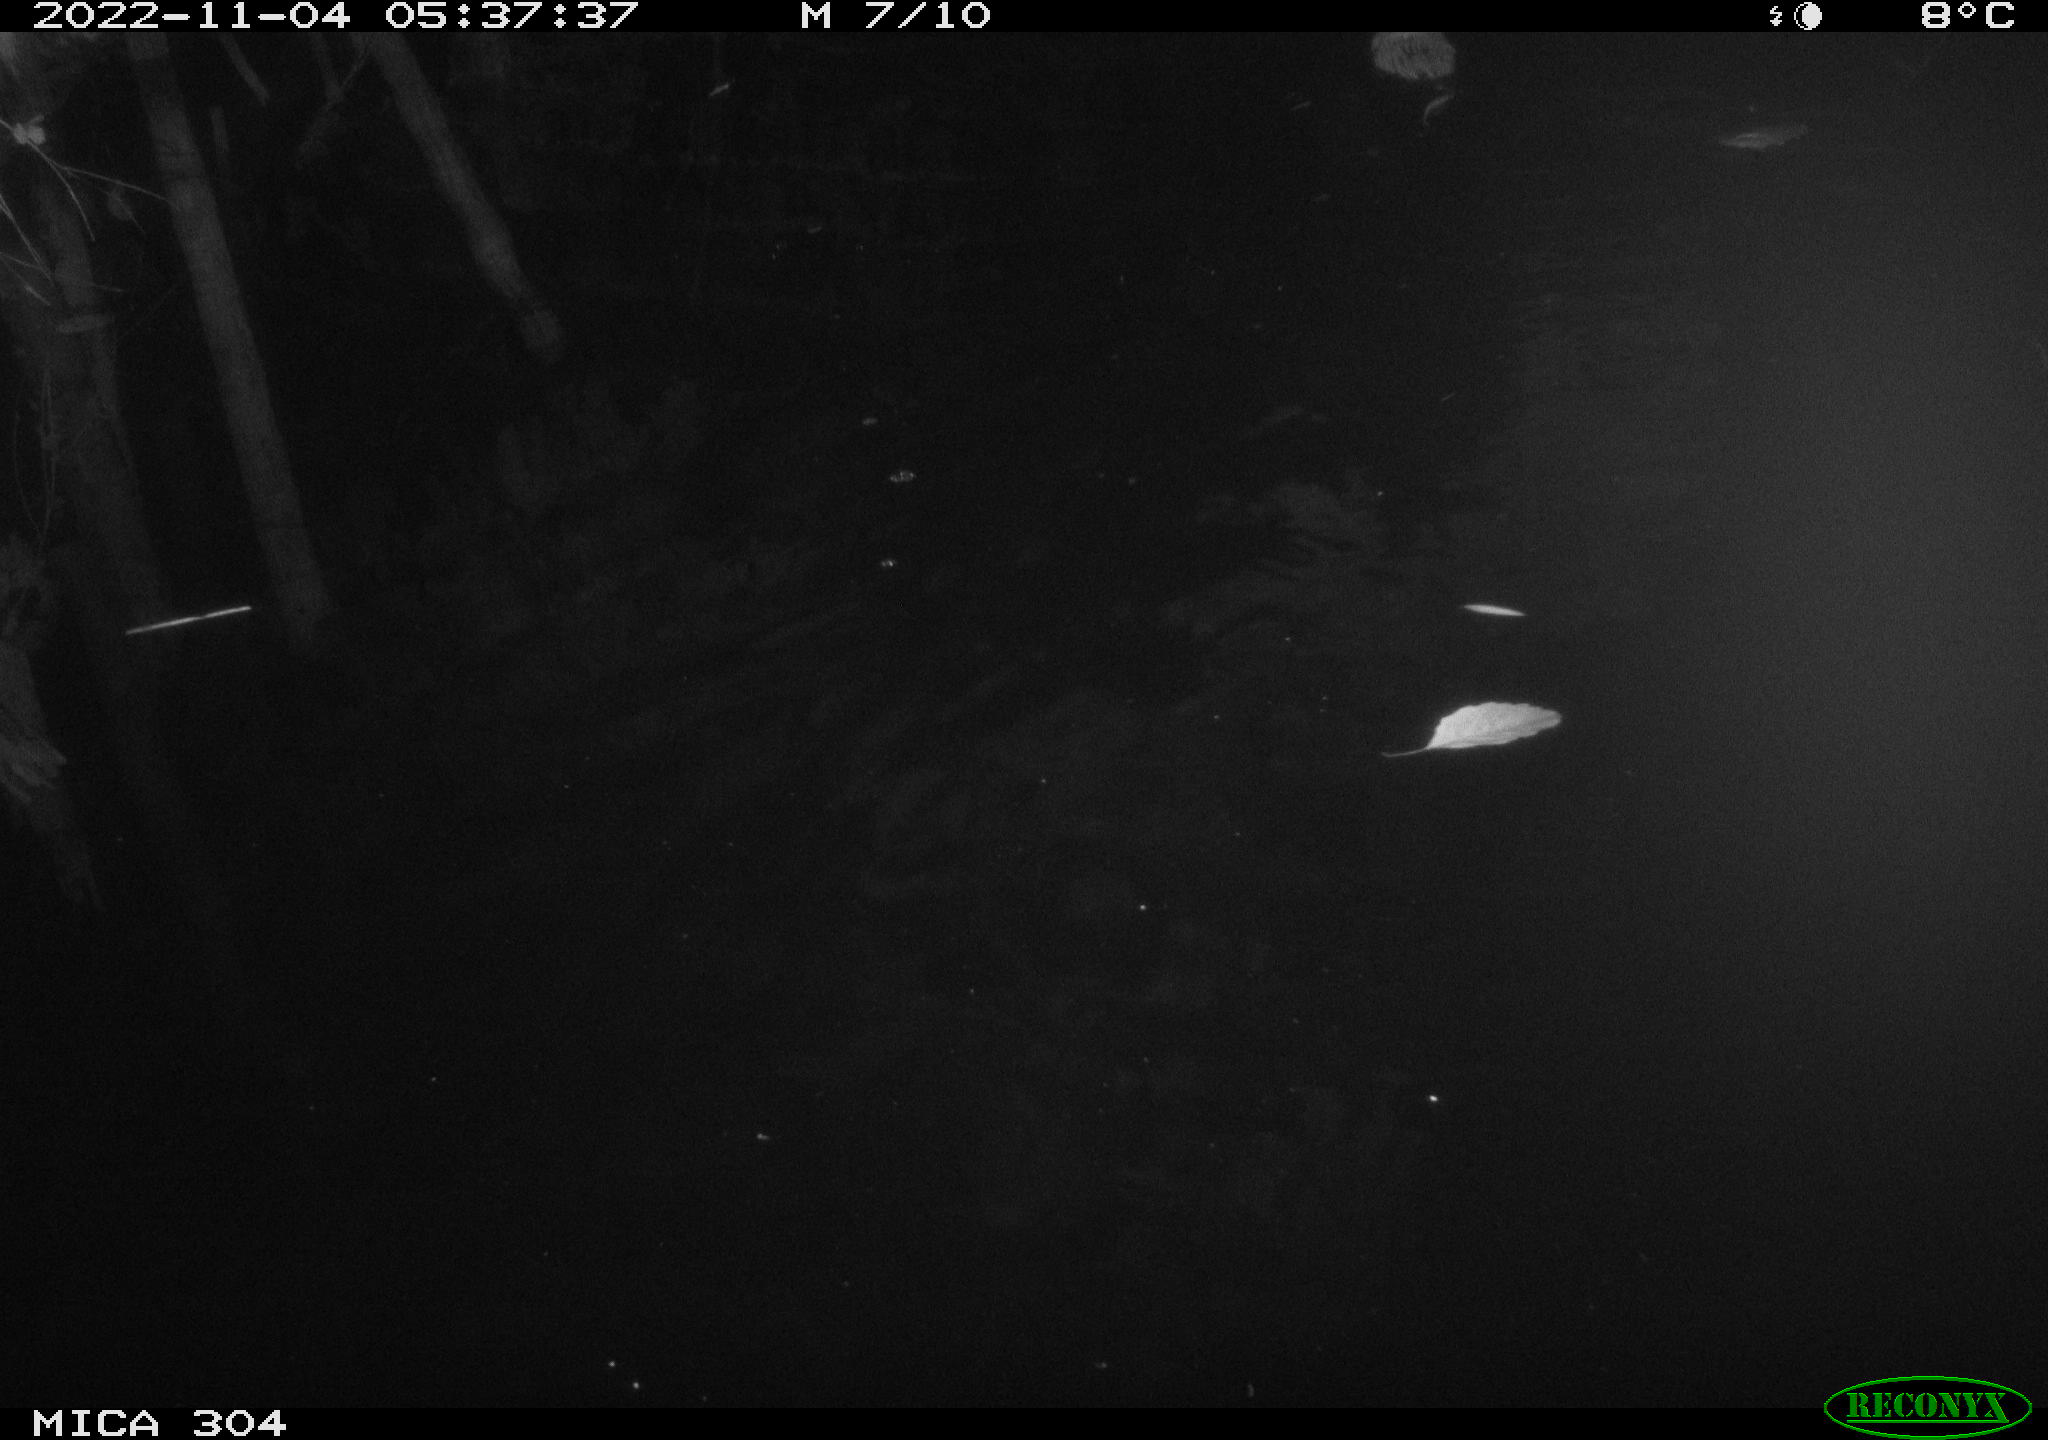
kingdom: Animalia
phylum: Chordata
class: Mammalia
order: Rodentia
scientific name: Rodentia
